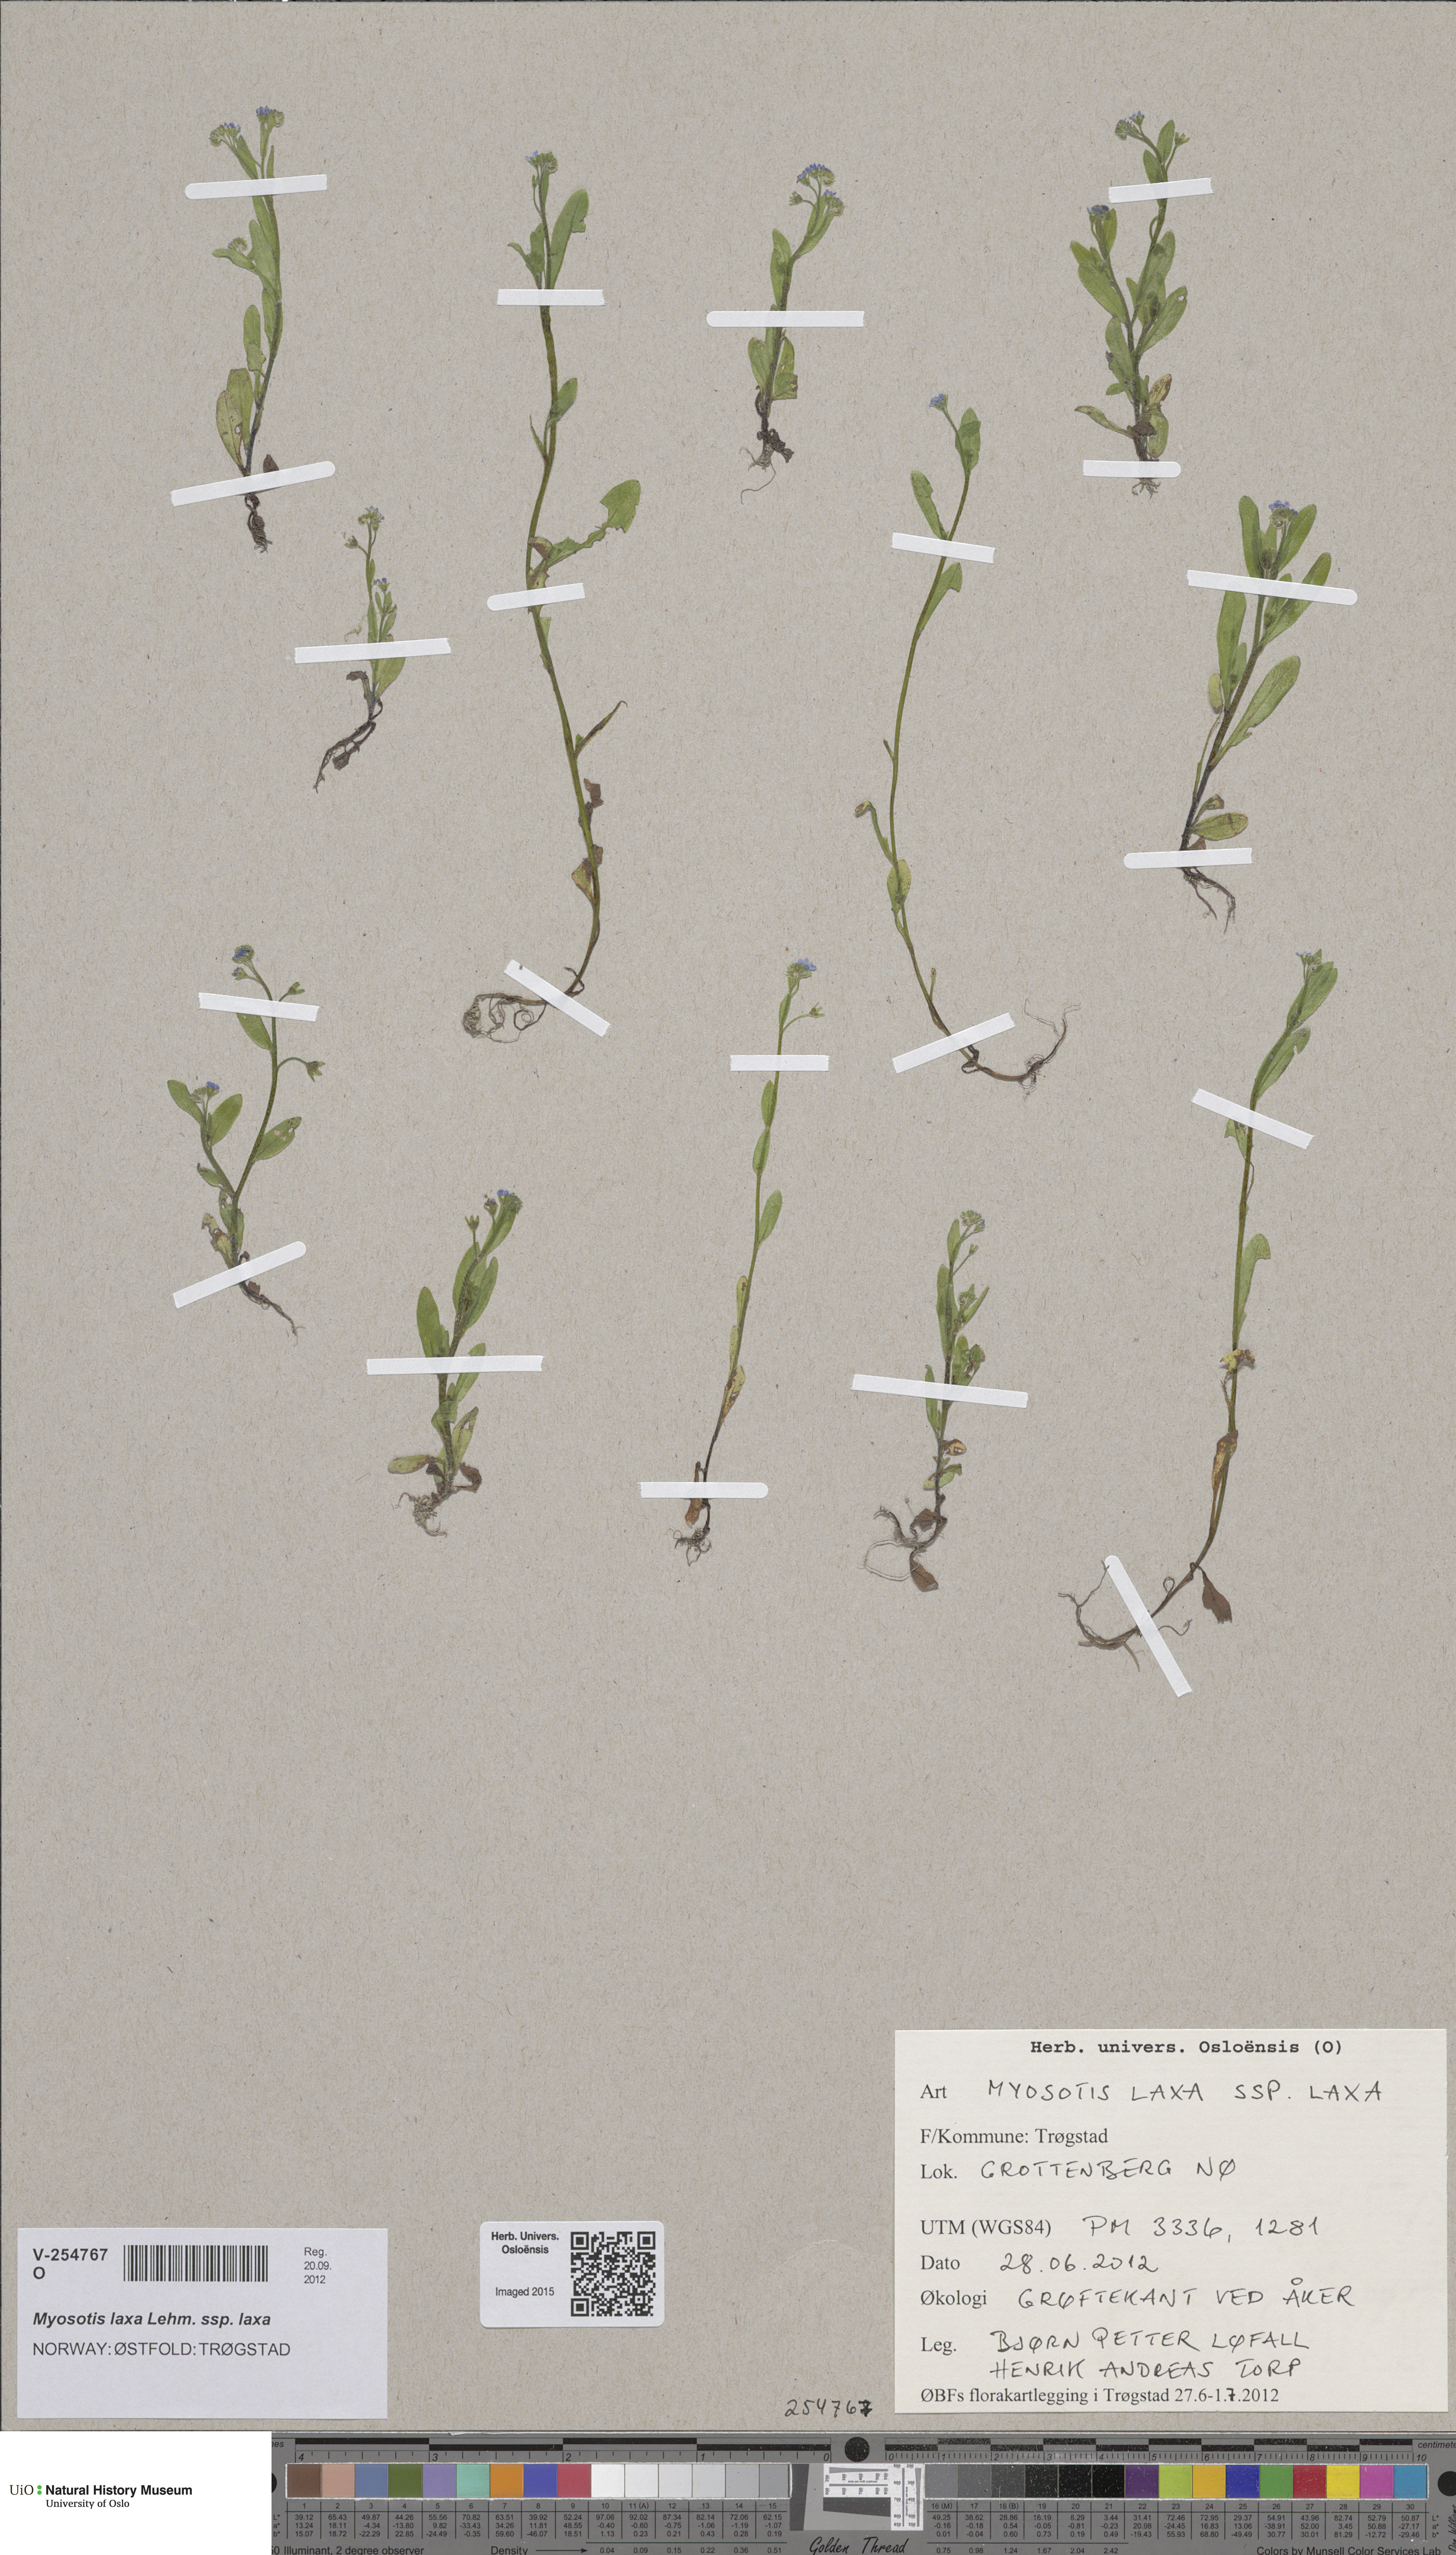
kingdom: Plantae
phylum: Tracheophyta
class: Magnoliopsida
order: Boraginales
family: Boraginaceae
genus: Myosotis
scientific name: Myosotis laxa
